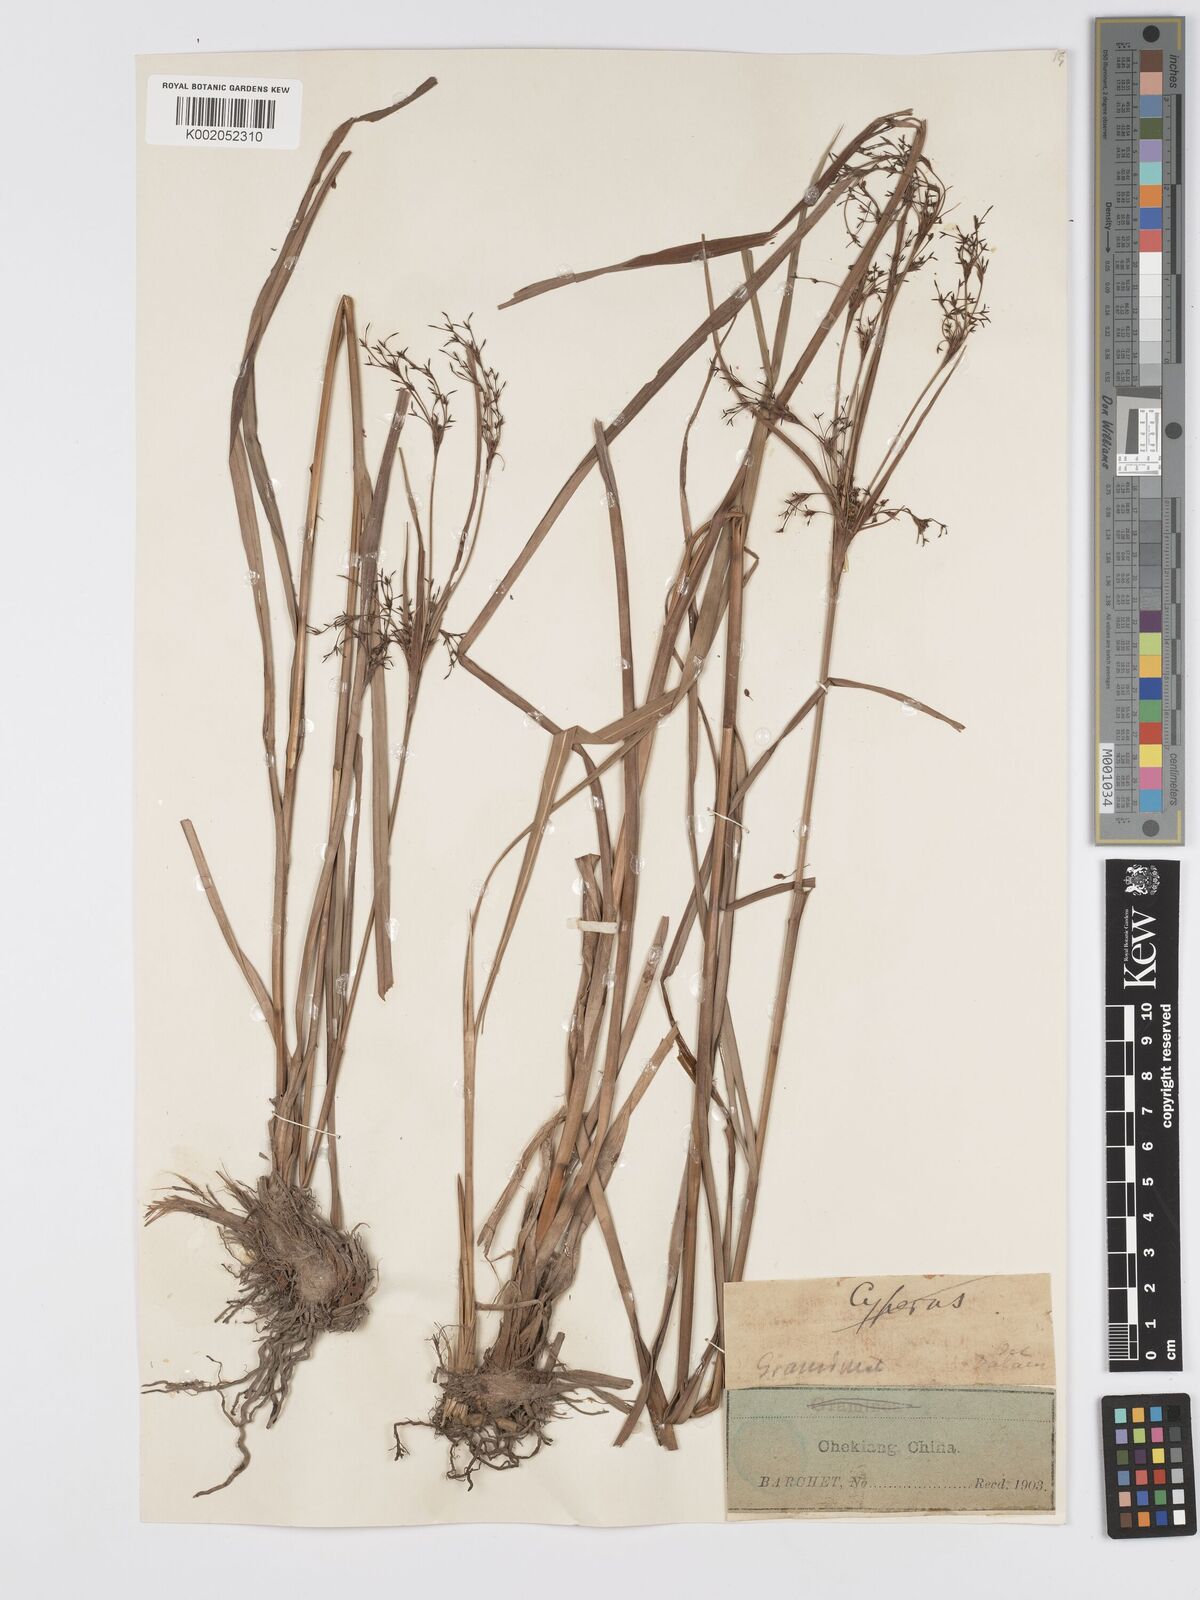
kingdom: Plantae
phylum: Tracheophyta
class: Liliopsida
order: Poales
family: Cyperaceae
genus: Scirpus
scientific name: Scirpus cyperinus
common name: Black-sheathed bulrush
